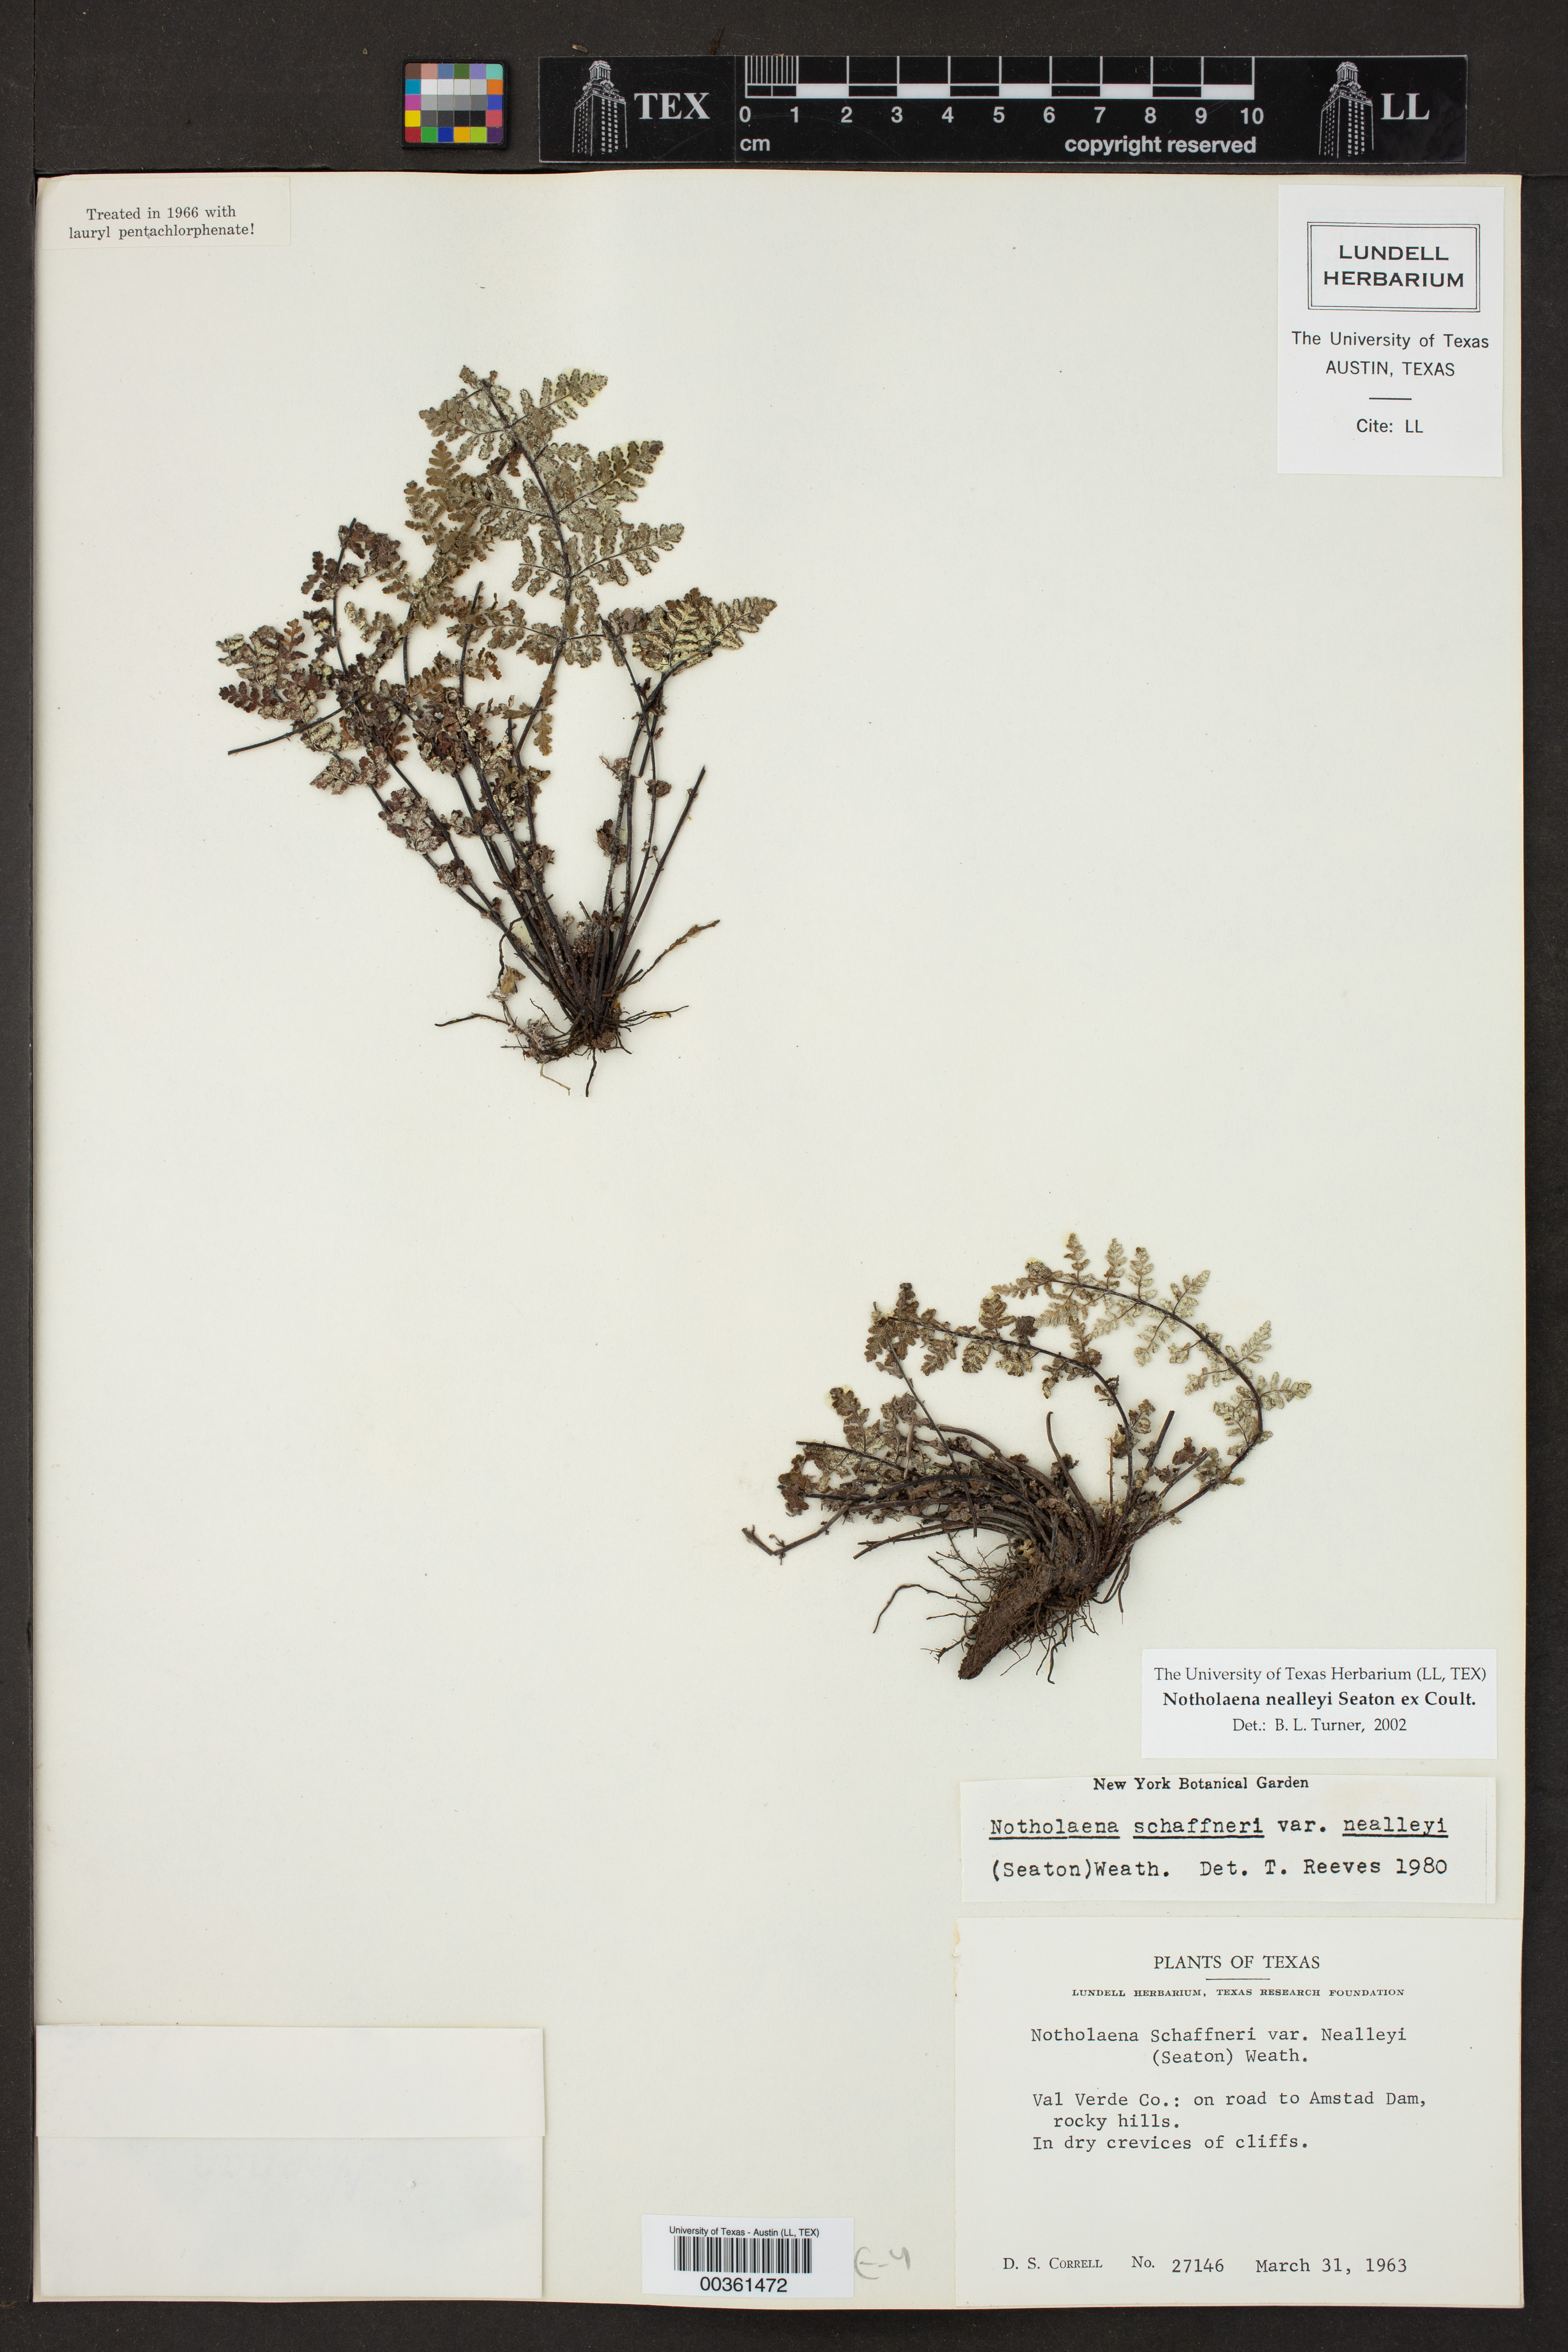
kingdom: Plantae
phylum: Tracheophyta
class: Polypodiopsida
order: Polypodiales
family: Pteridaceae
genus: Notholaena
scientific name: Notholaena schaffneri
